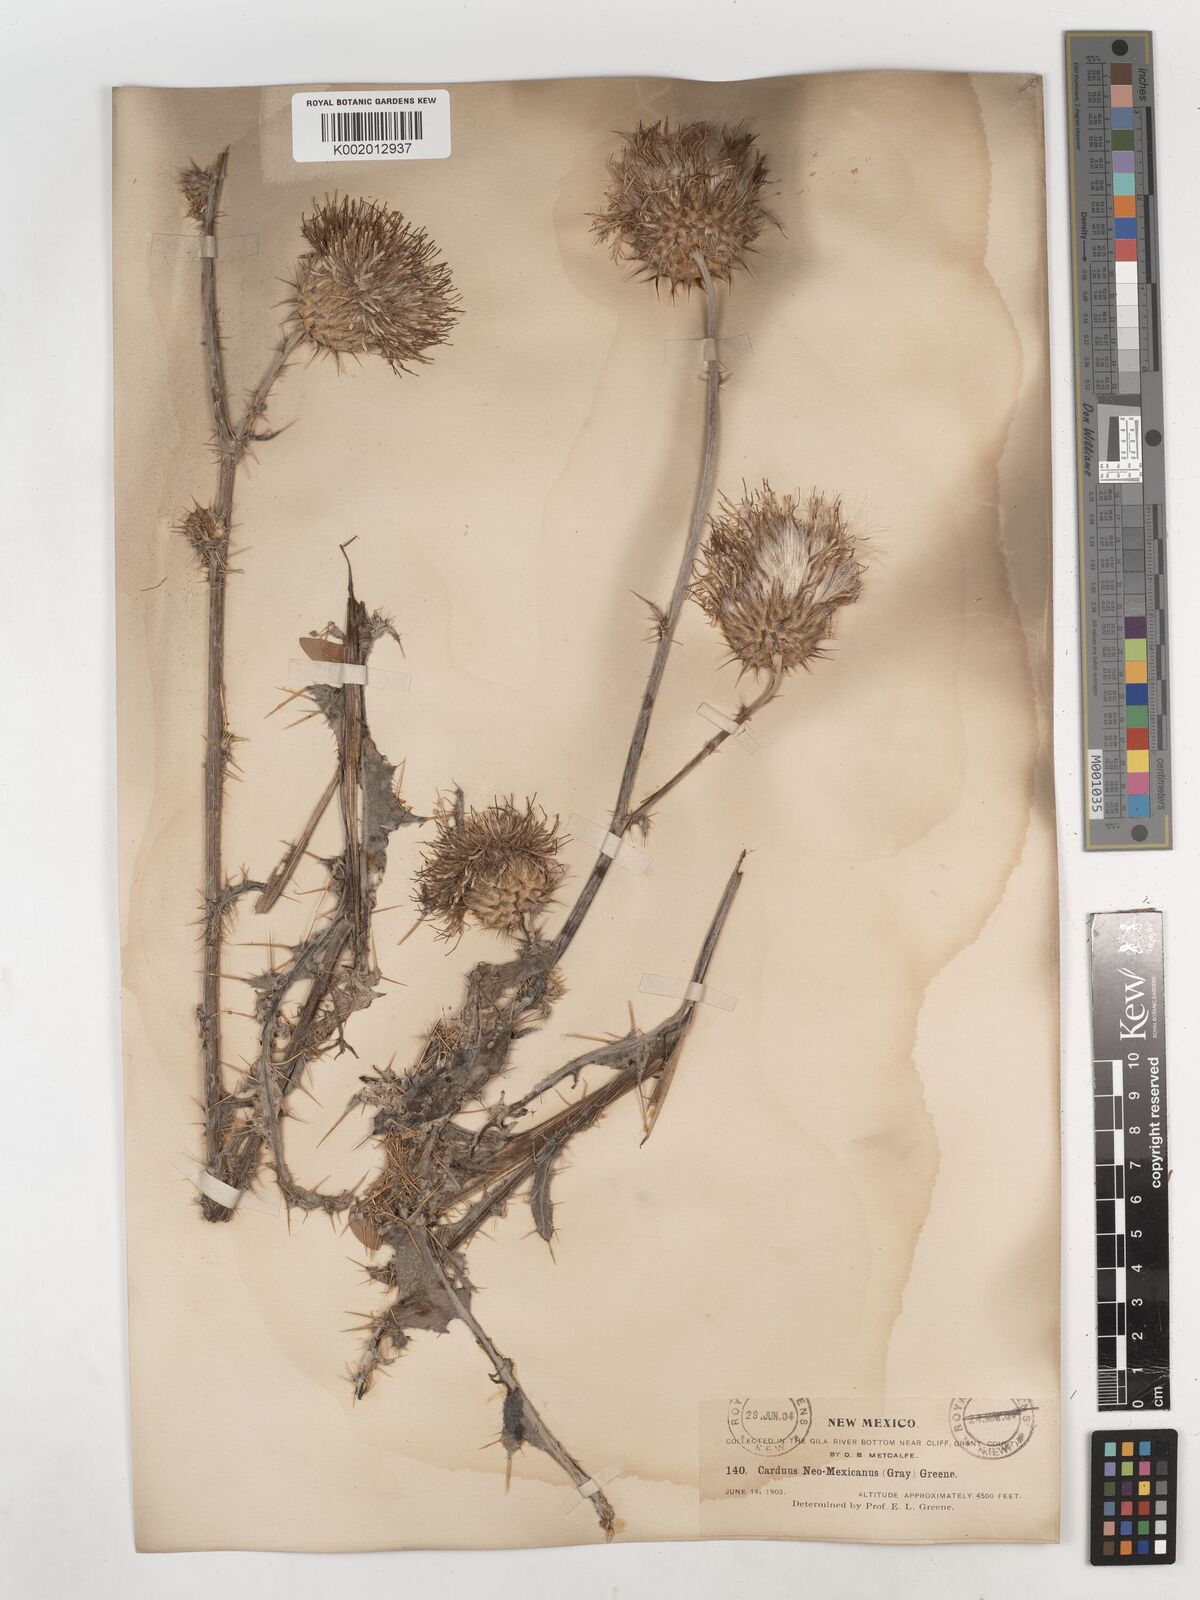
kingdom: Plantae
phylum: Tracheophyta
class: Magnoliopsida
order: Asterales
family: Asteraceae
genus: Cirsium
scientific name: Cirsium neomexicanum
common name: New mexico thistle
